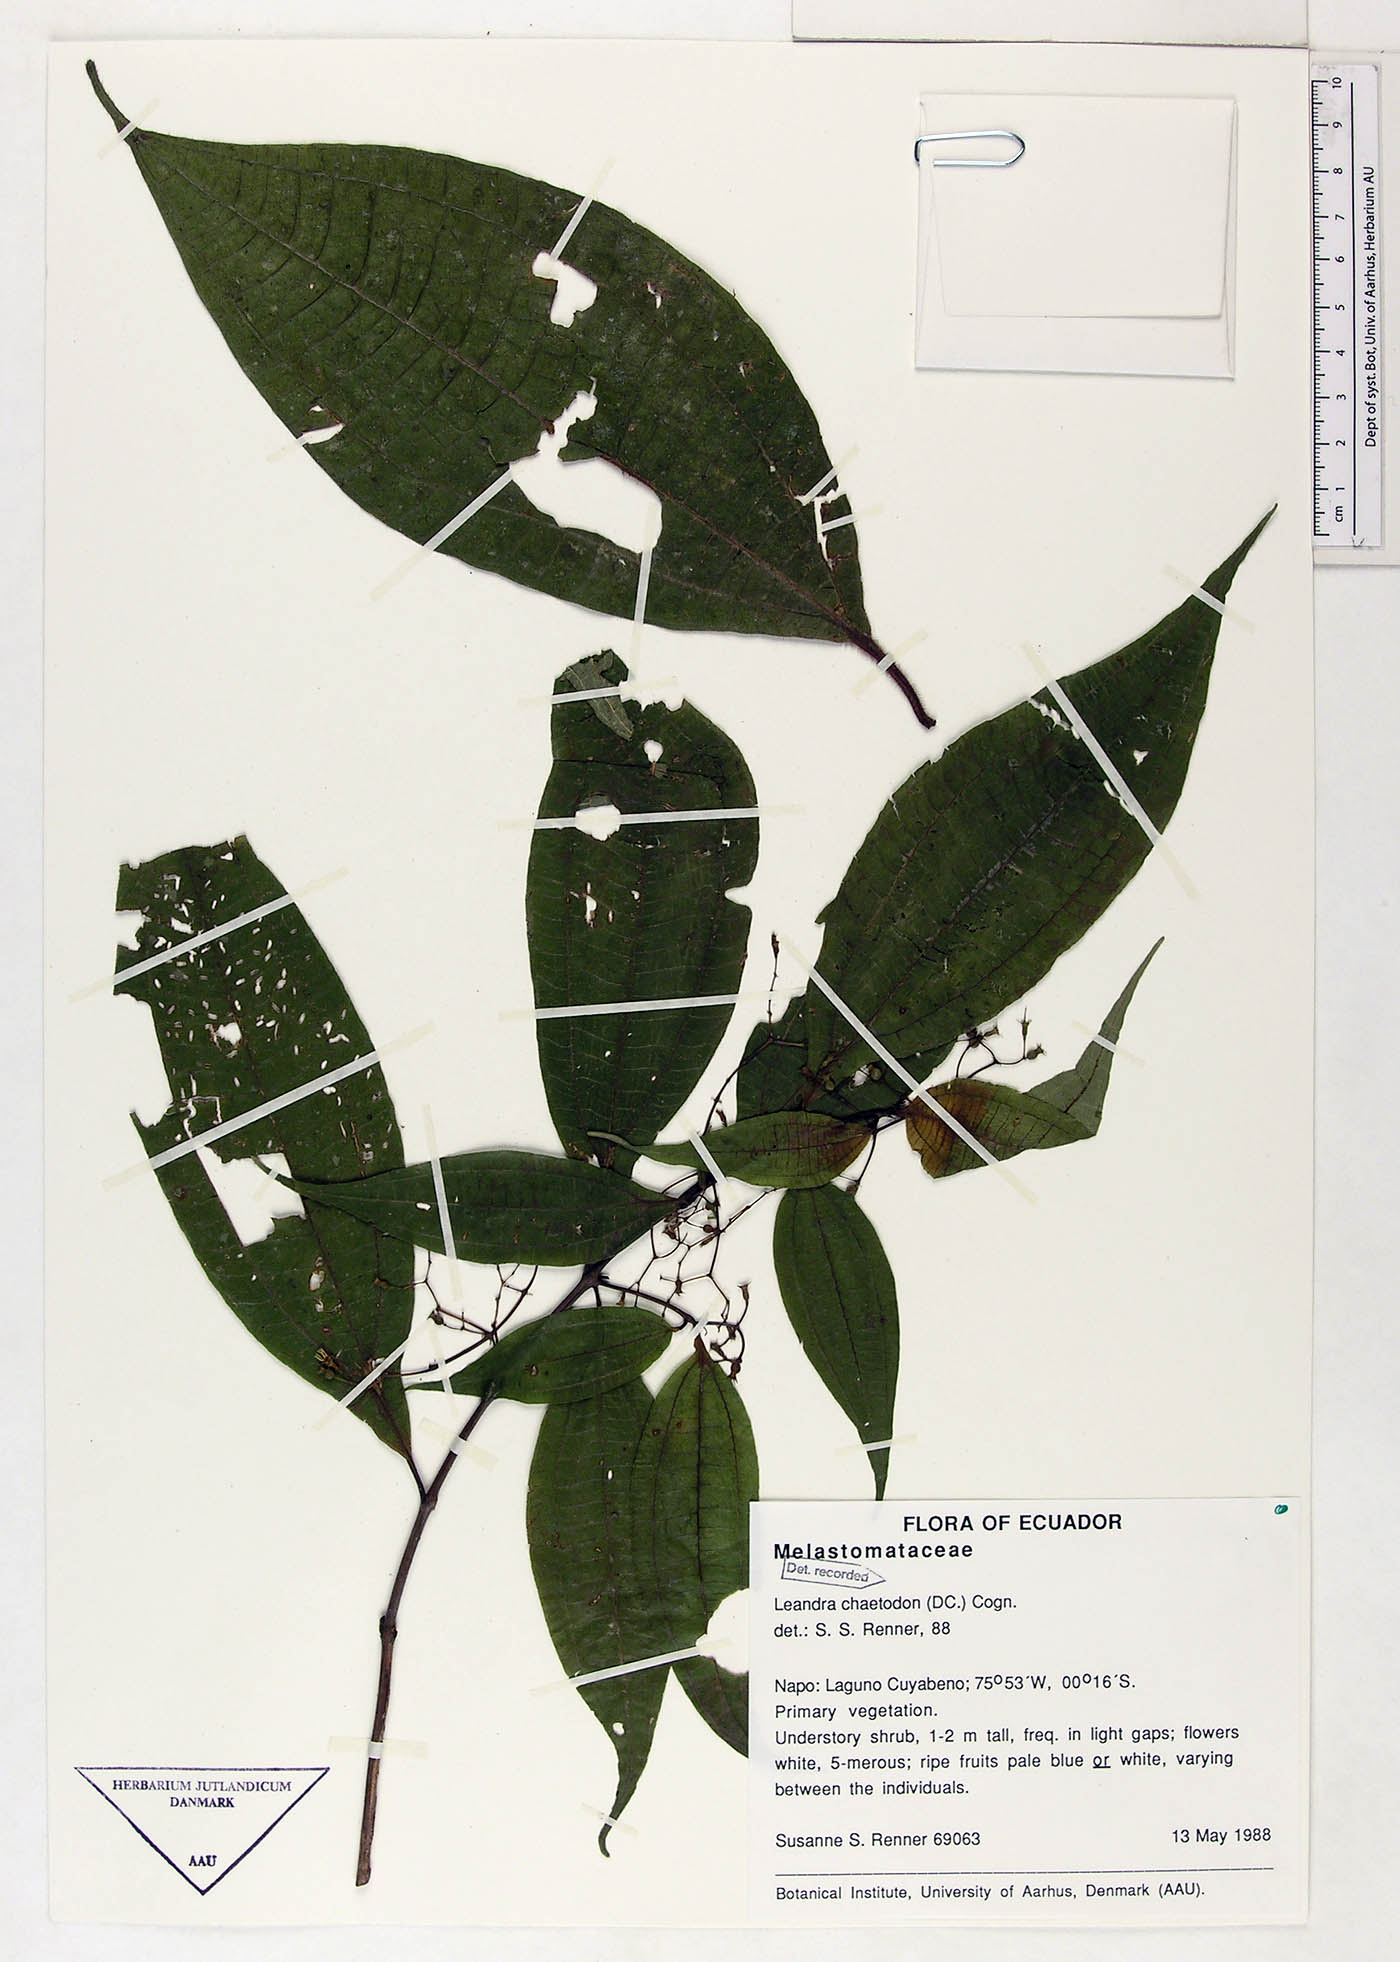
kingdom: Plantae
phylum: Tracheophyta
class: Magnoliopsida
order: Myrtales
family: Melastomataceae
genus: Miconia
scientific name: Miconia chaetodonta
